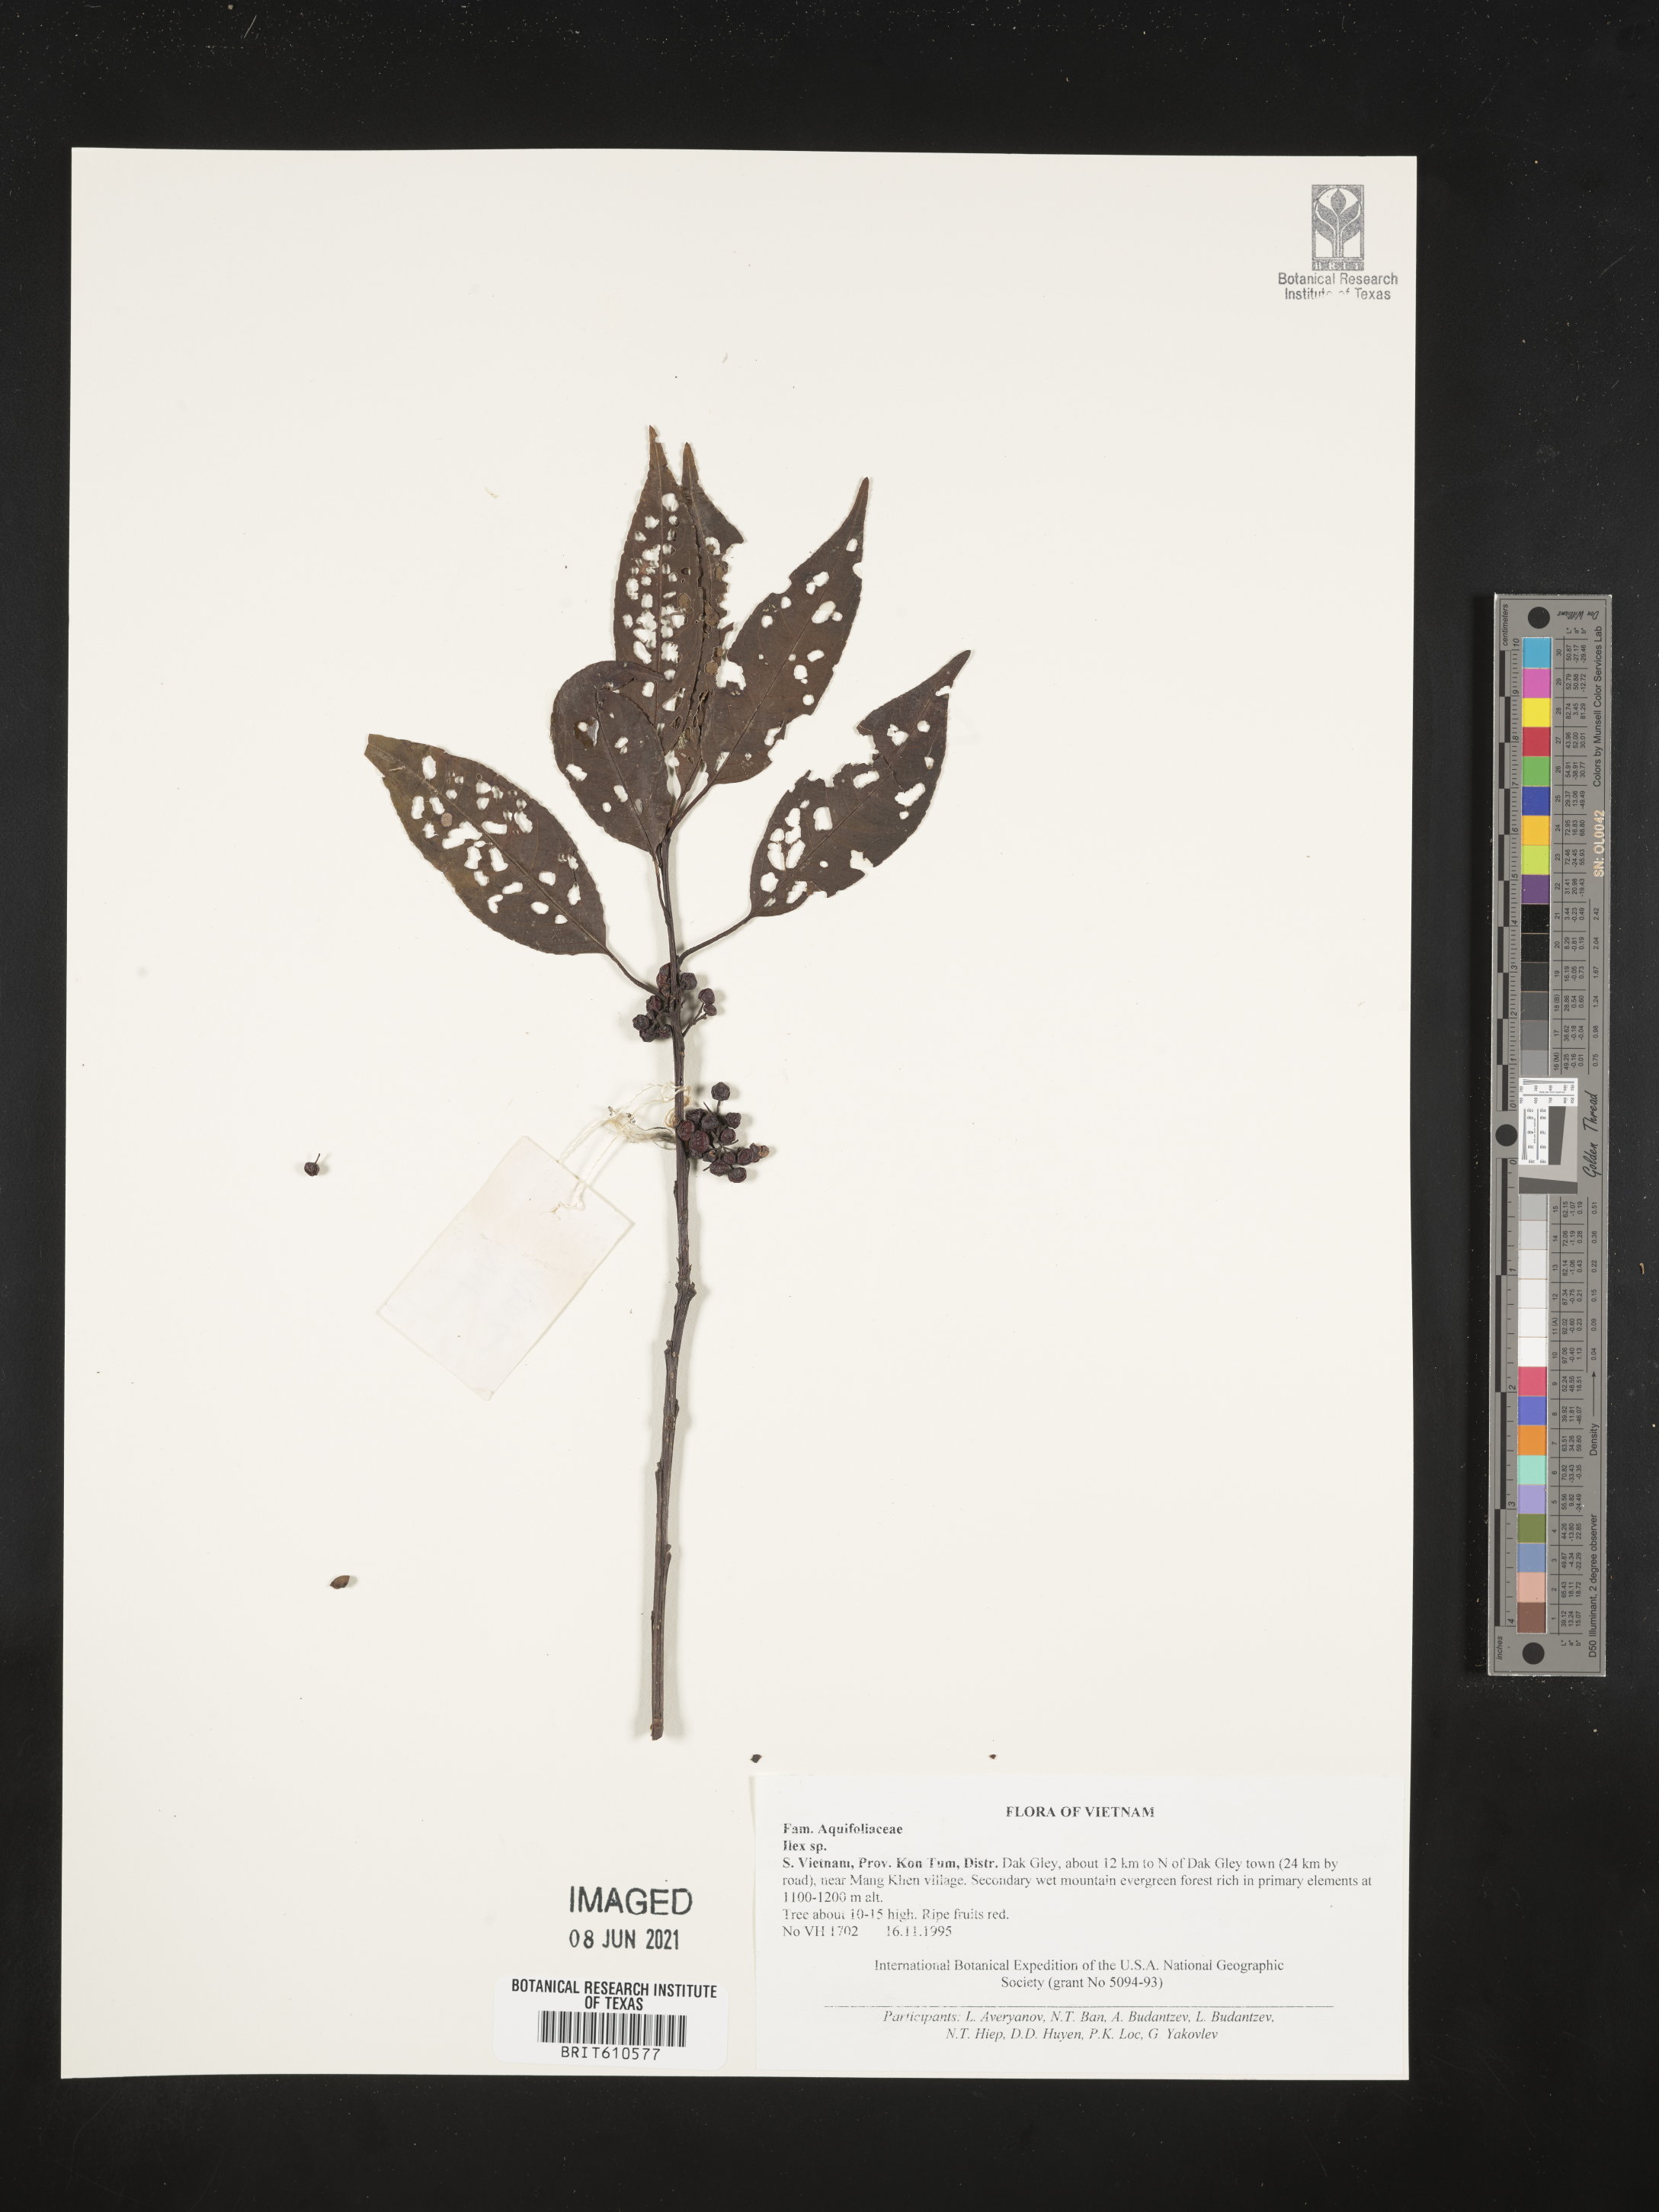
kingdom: Plantae
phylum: Tracheophyta
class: Magnoliopsida
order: Aquifoliales
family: Aquifoliaceae
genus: Ilex
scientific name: Ilex
